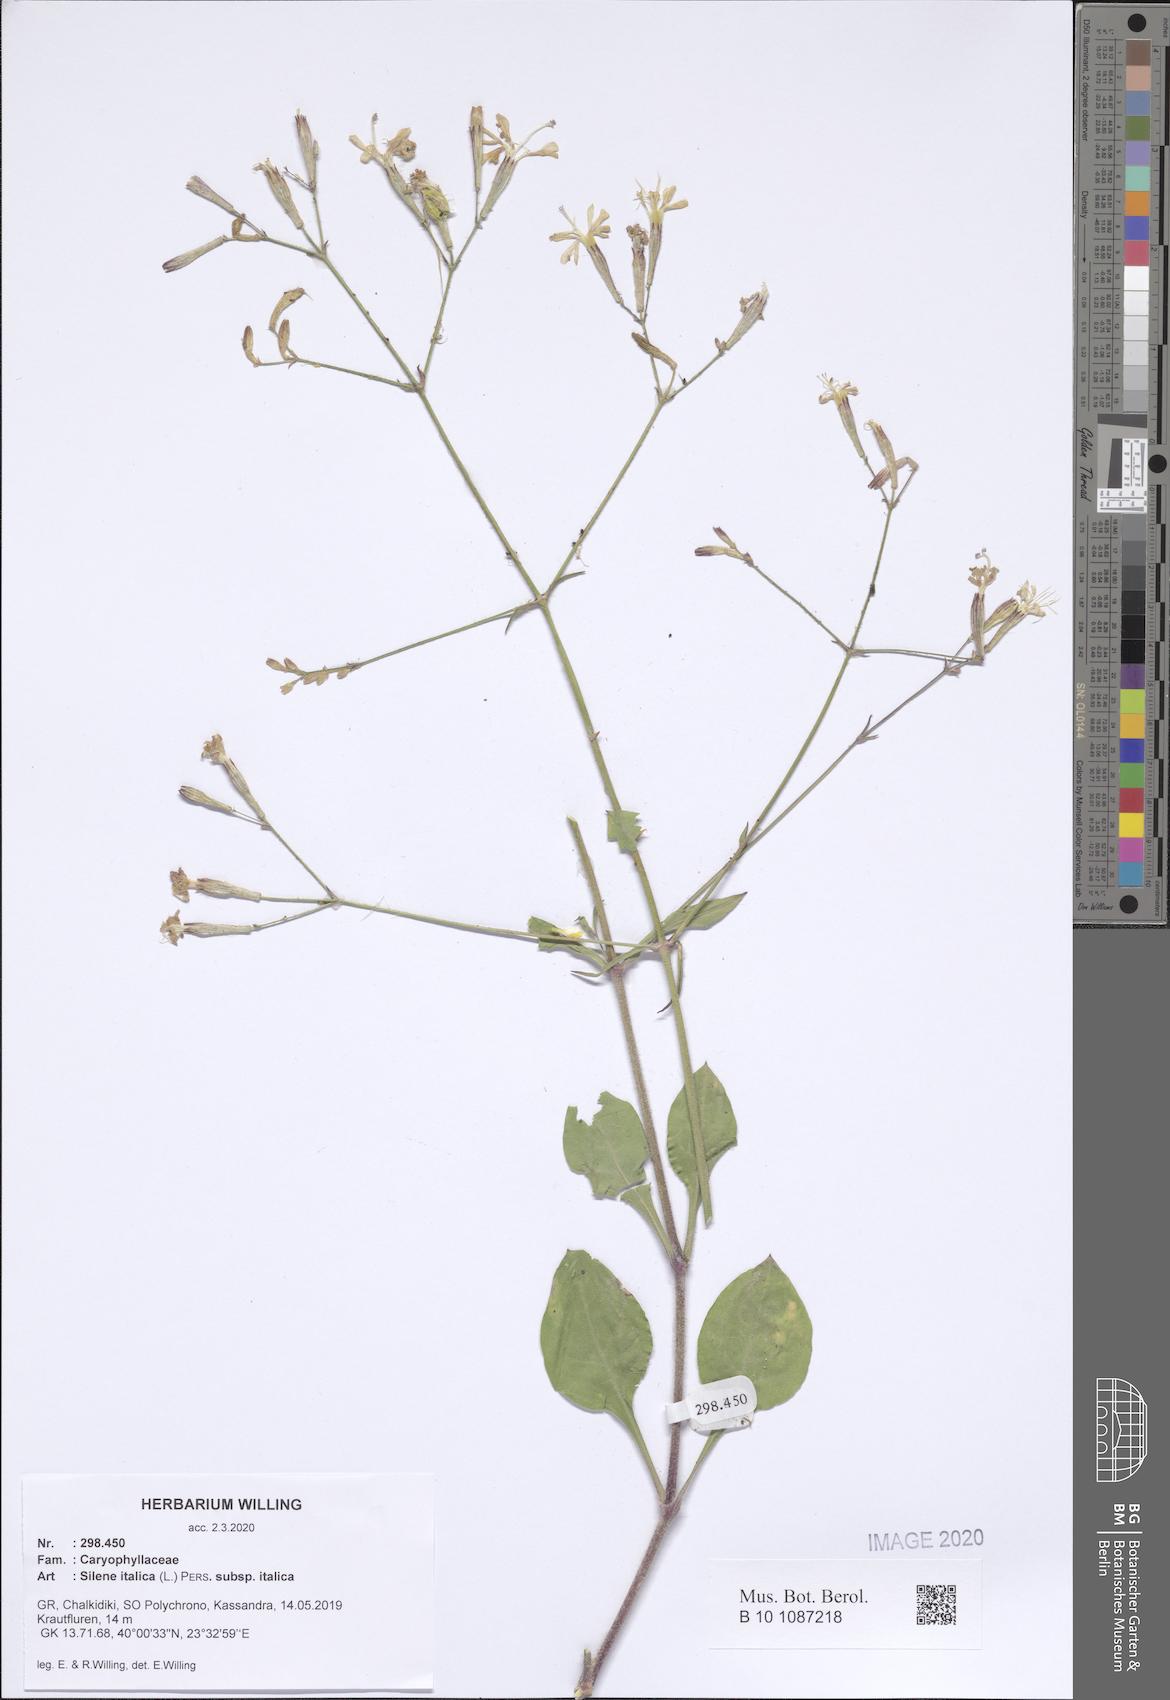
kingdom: Plantae
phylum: Tracheophyta
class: Magnoliopsida
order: Caryophyllales
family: Caryophyllaceae
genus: Silene
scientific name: Silene italica
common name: Italian catchfly
